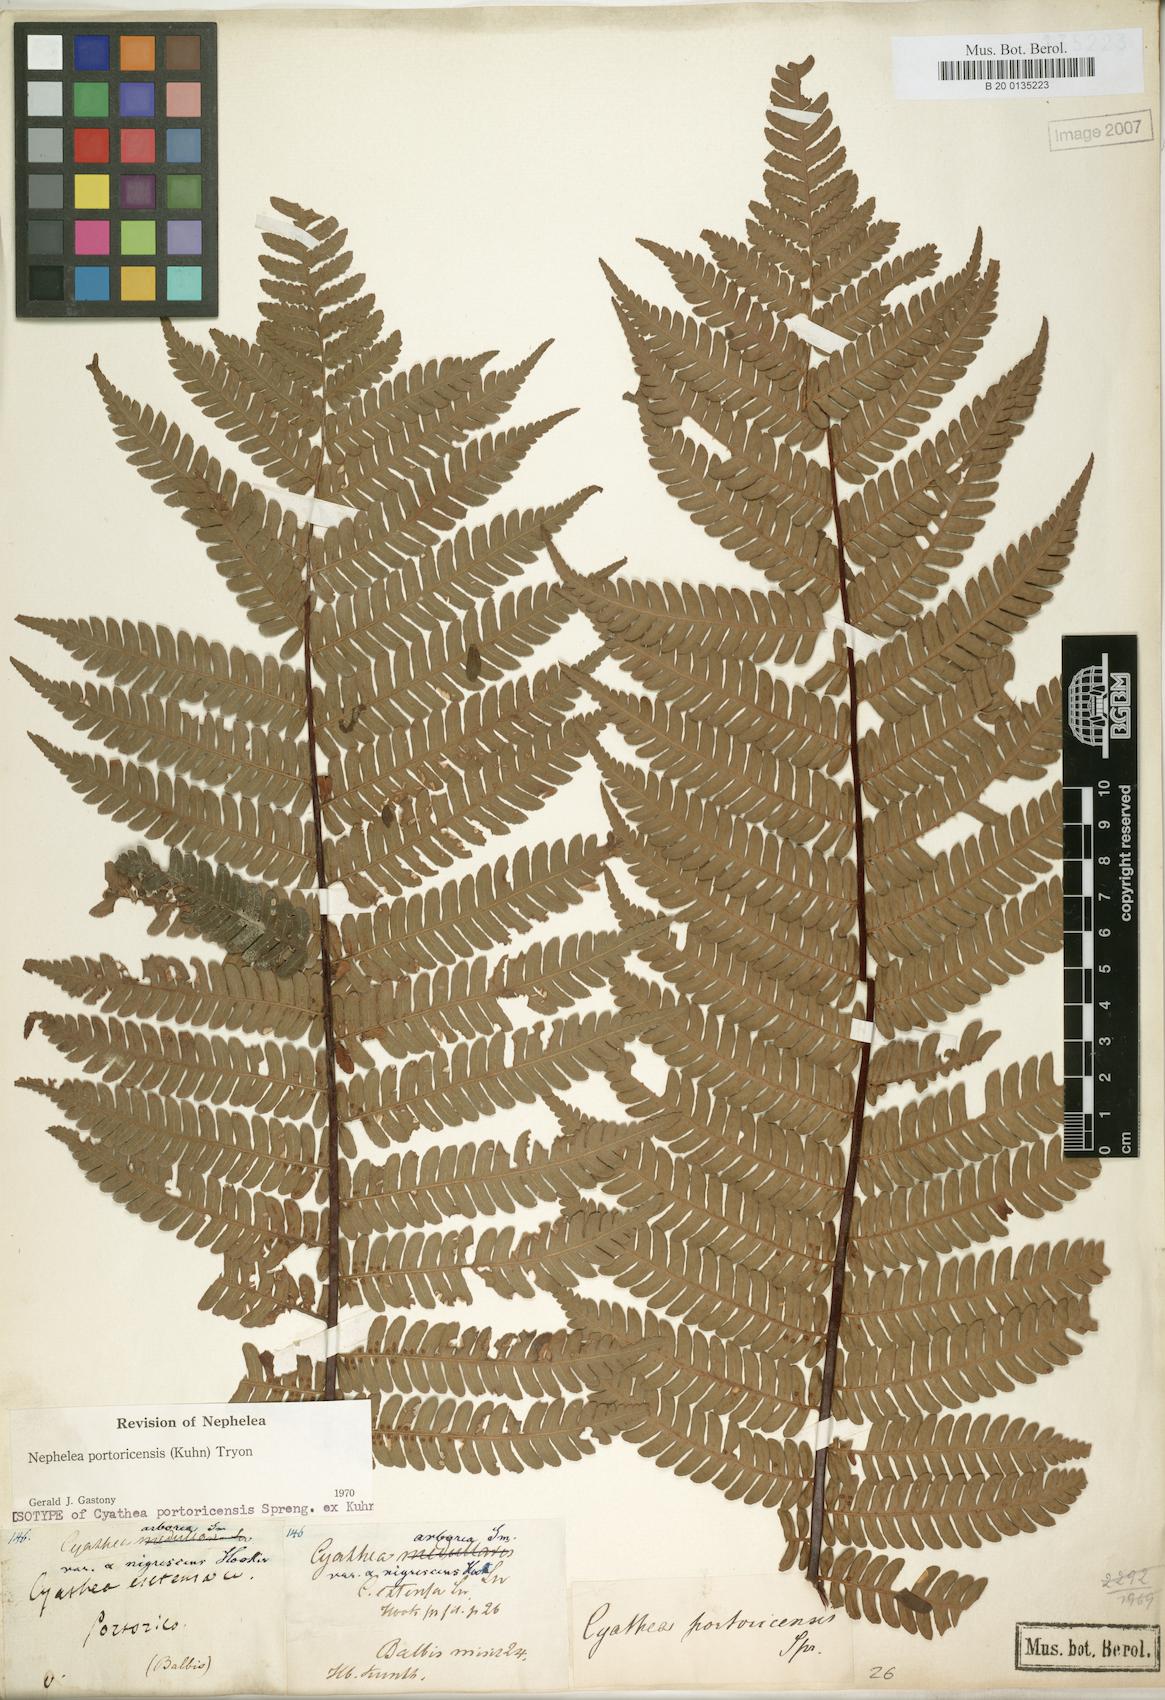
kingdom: Plantae
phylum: Tracheophyta
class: Polypodiopsida
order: Cyatheales
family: Cyatheaceae
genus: Alsophila
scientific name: Alsophila portoricensis
